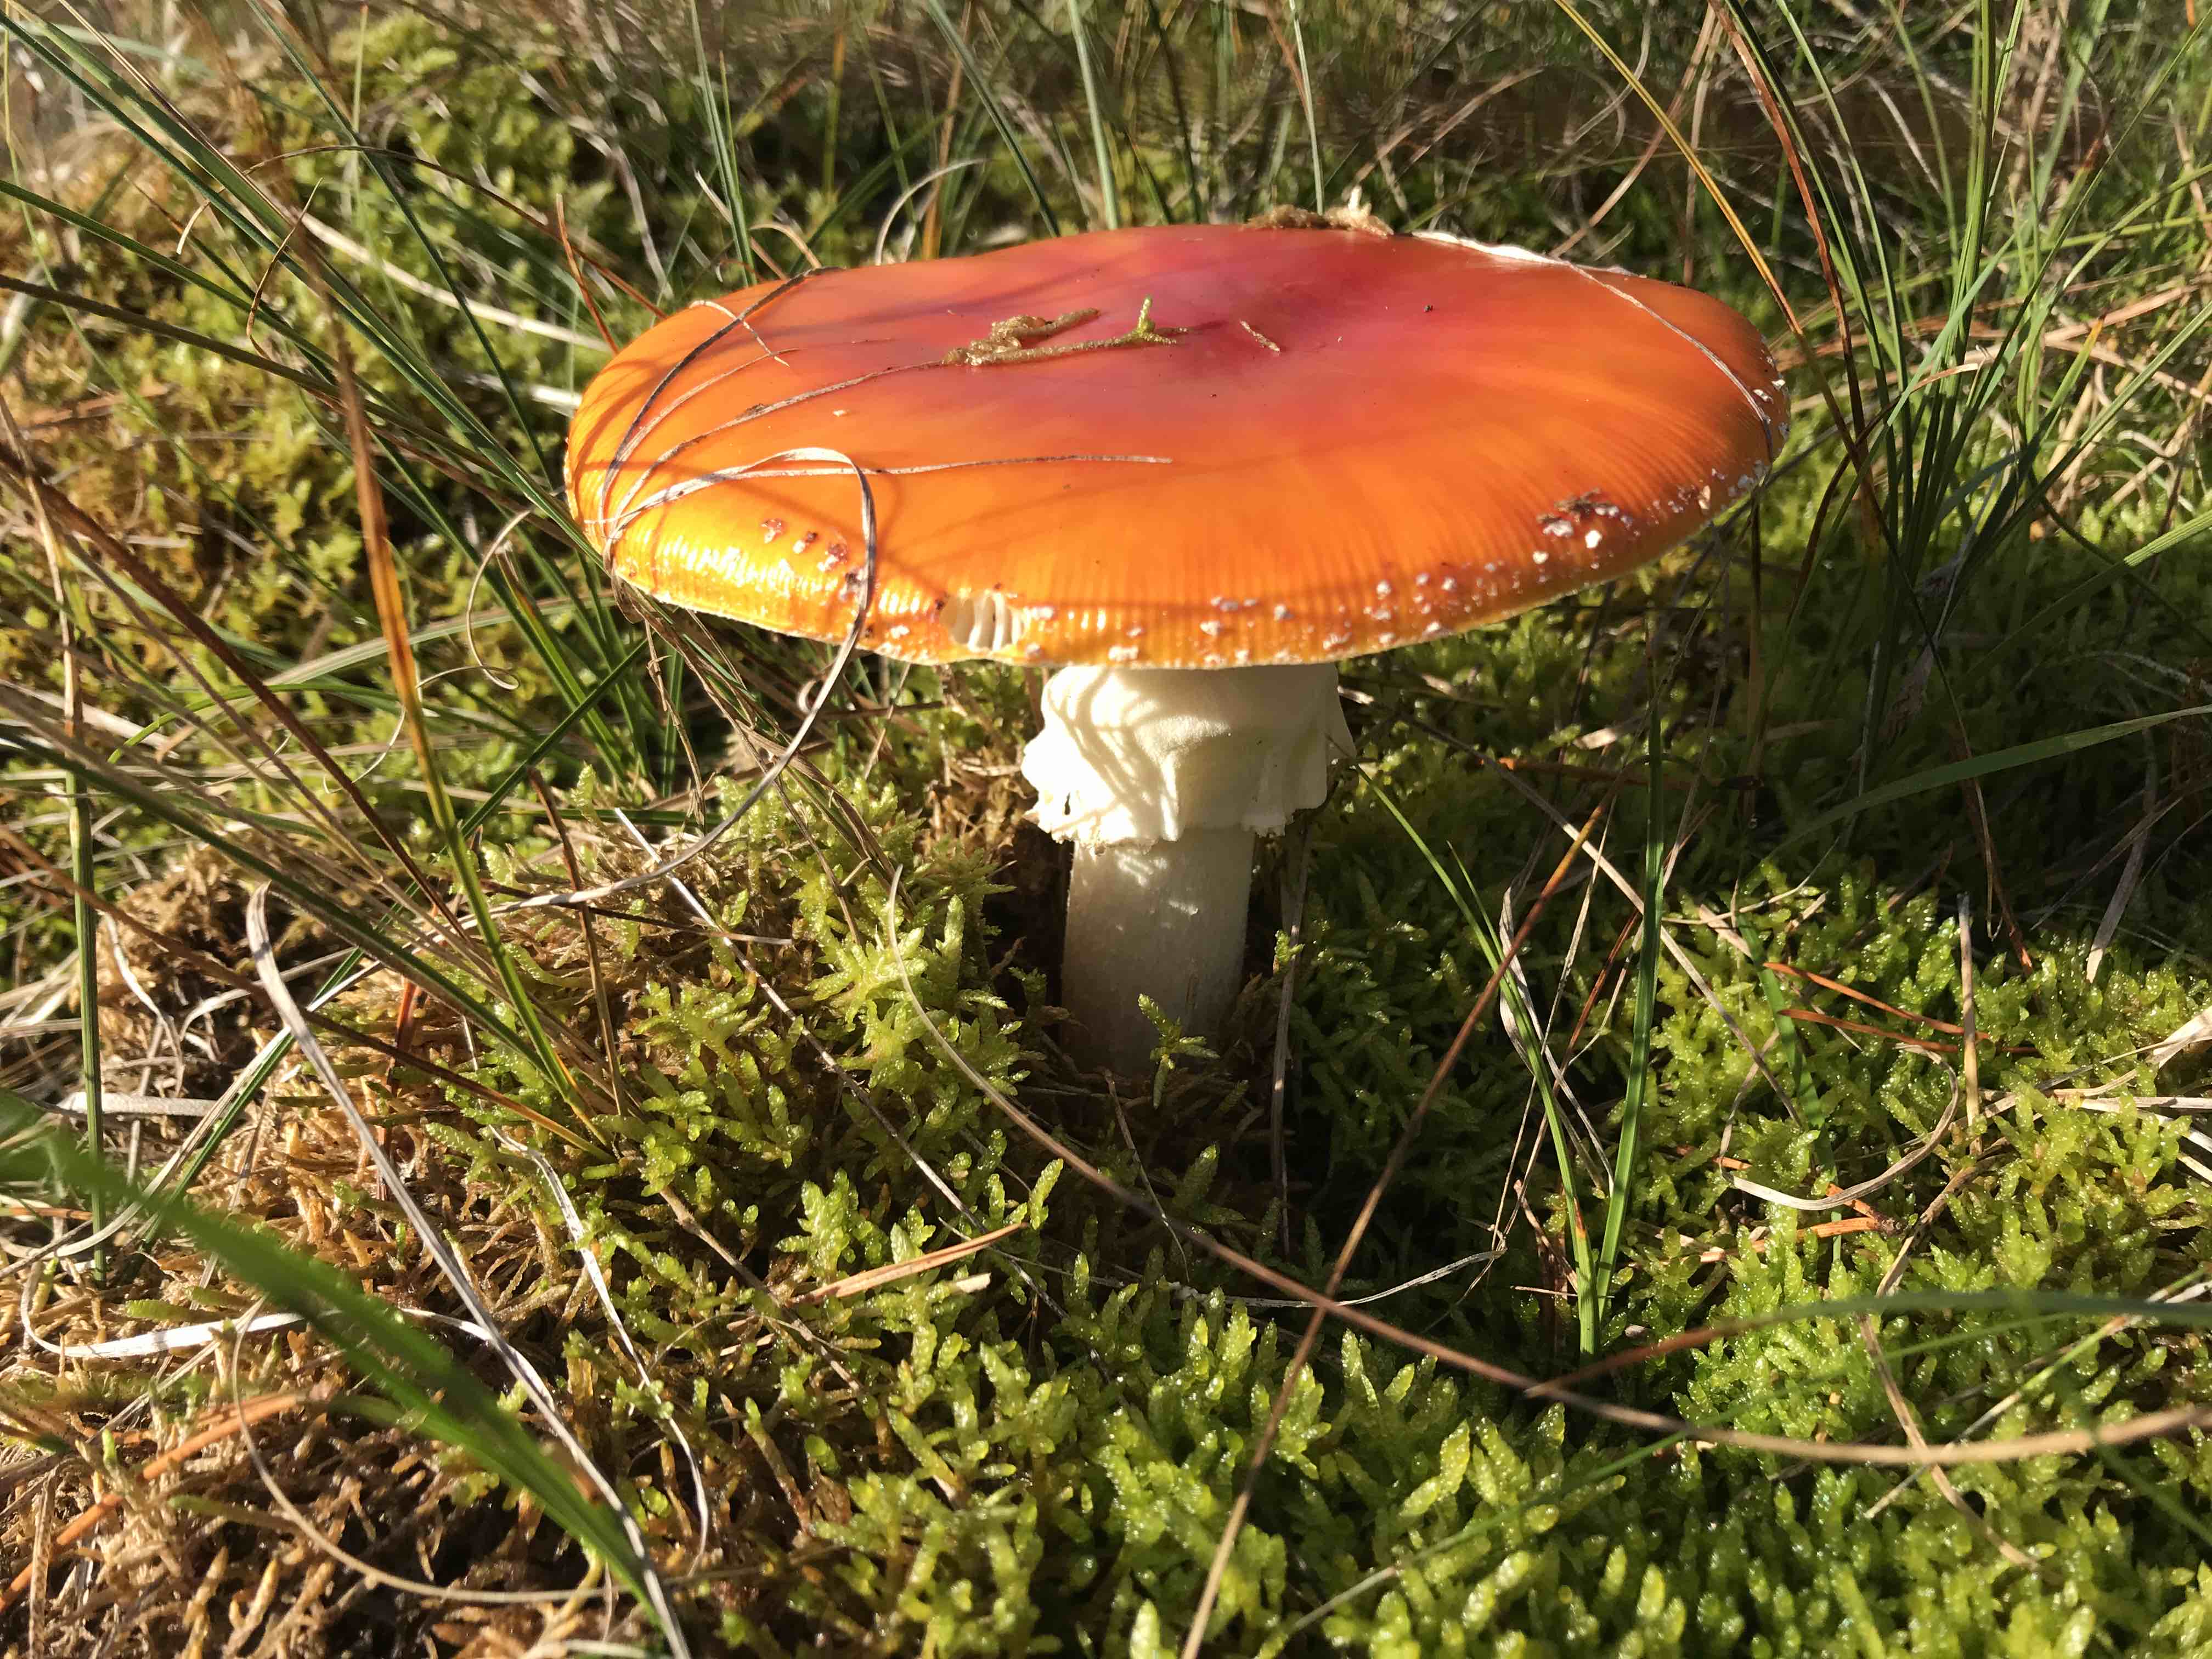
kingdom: Fungi
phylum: Basidiomycota
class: Agaricomycetes
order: Agaricales
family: Amanitaceae
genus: Amanita
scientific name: Amanita muscaria
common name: rød fluesvamp
